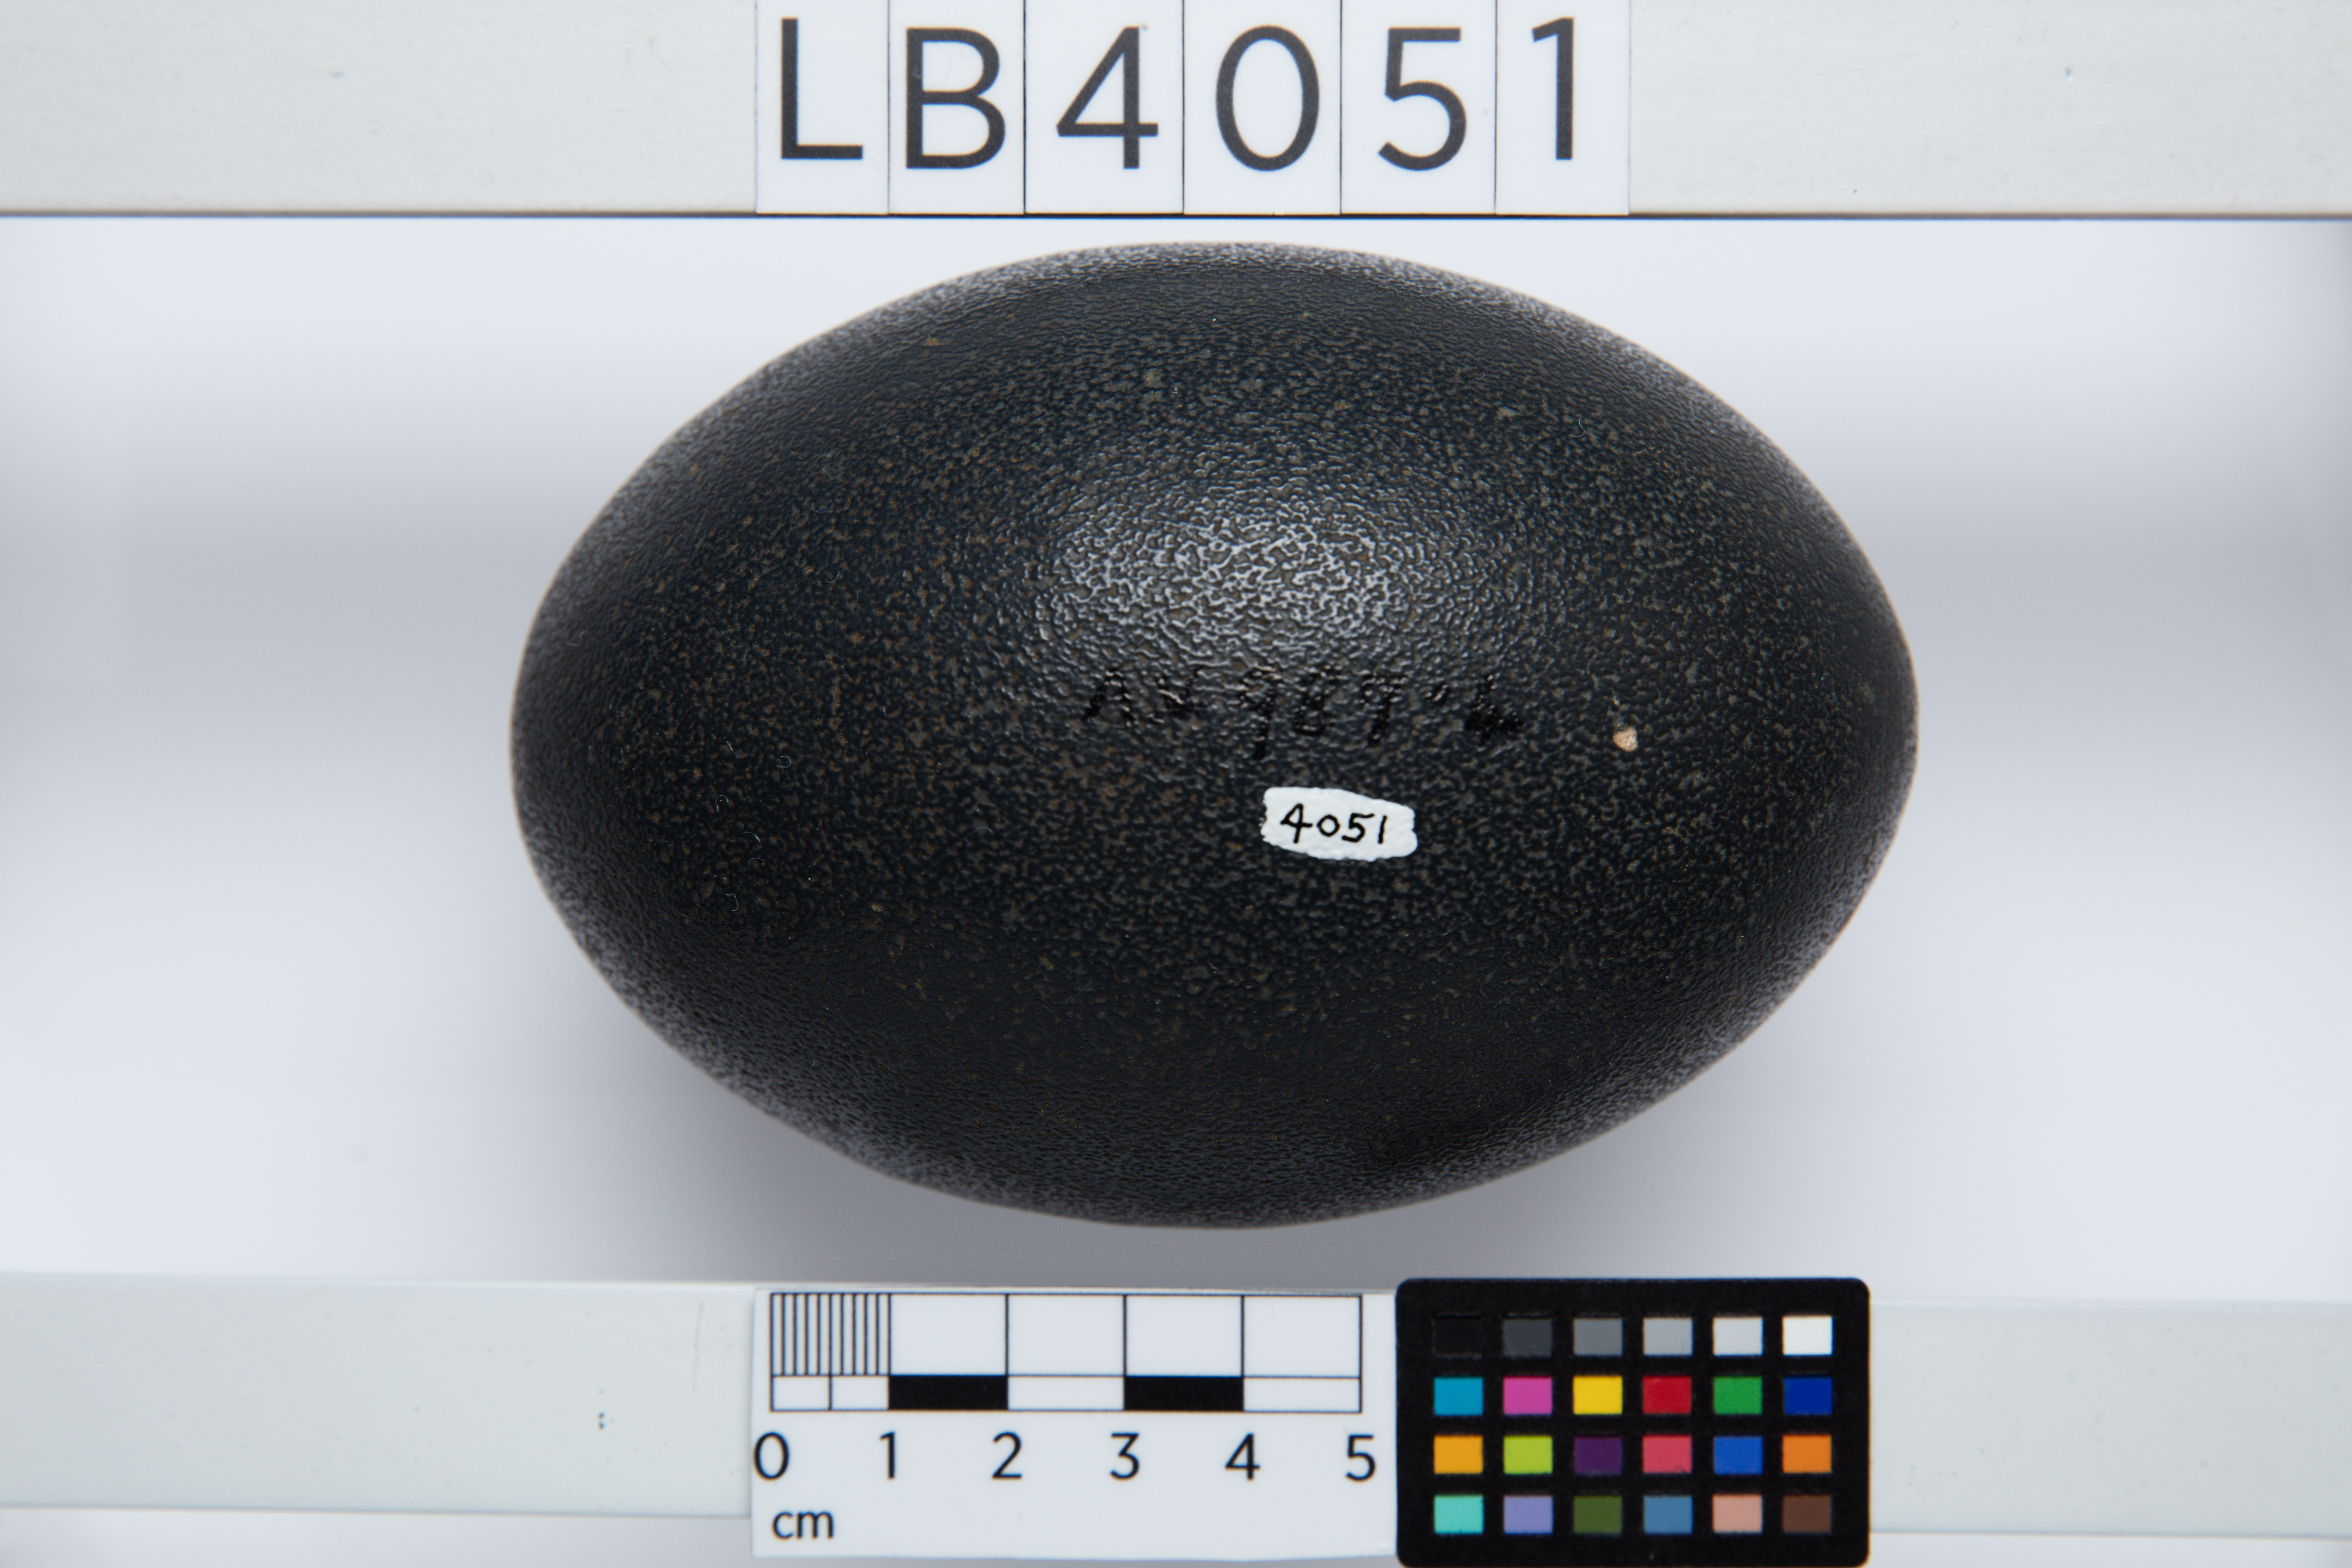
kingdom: Animalia
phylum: Chordata
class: Aves
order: Casuariiformes
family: Dromaiidae
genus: Dromaius
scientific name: Dromaius novaehollandiae
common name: Emu
